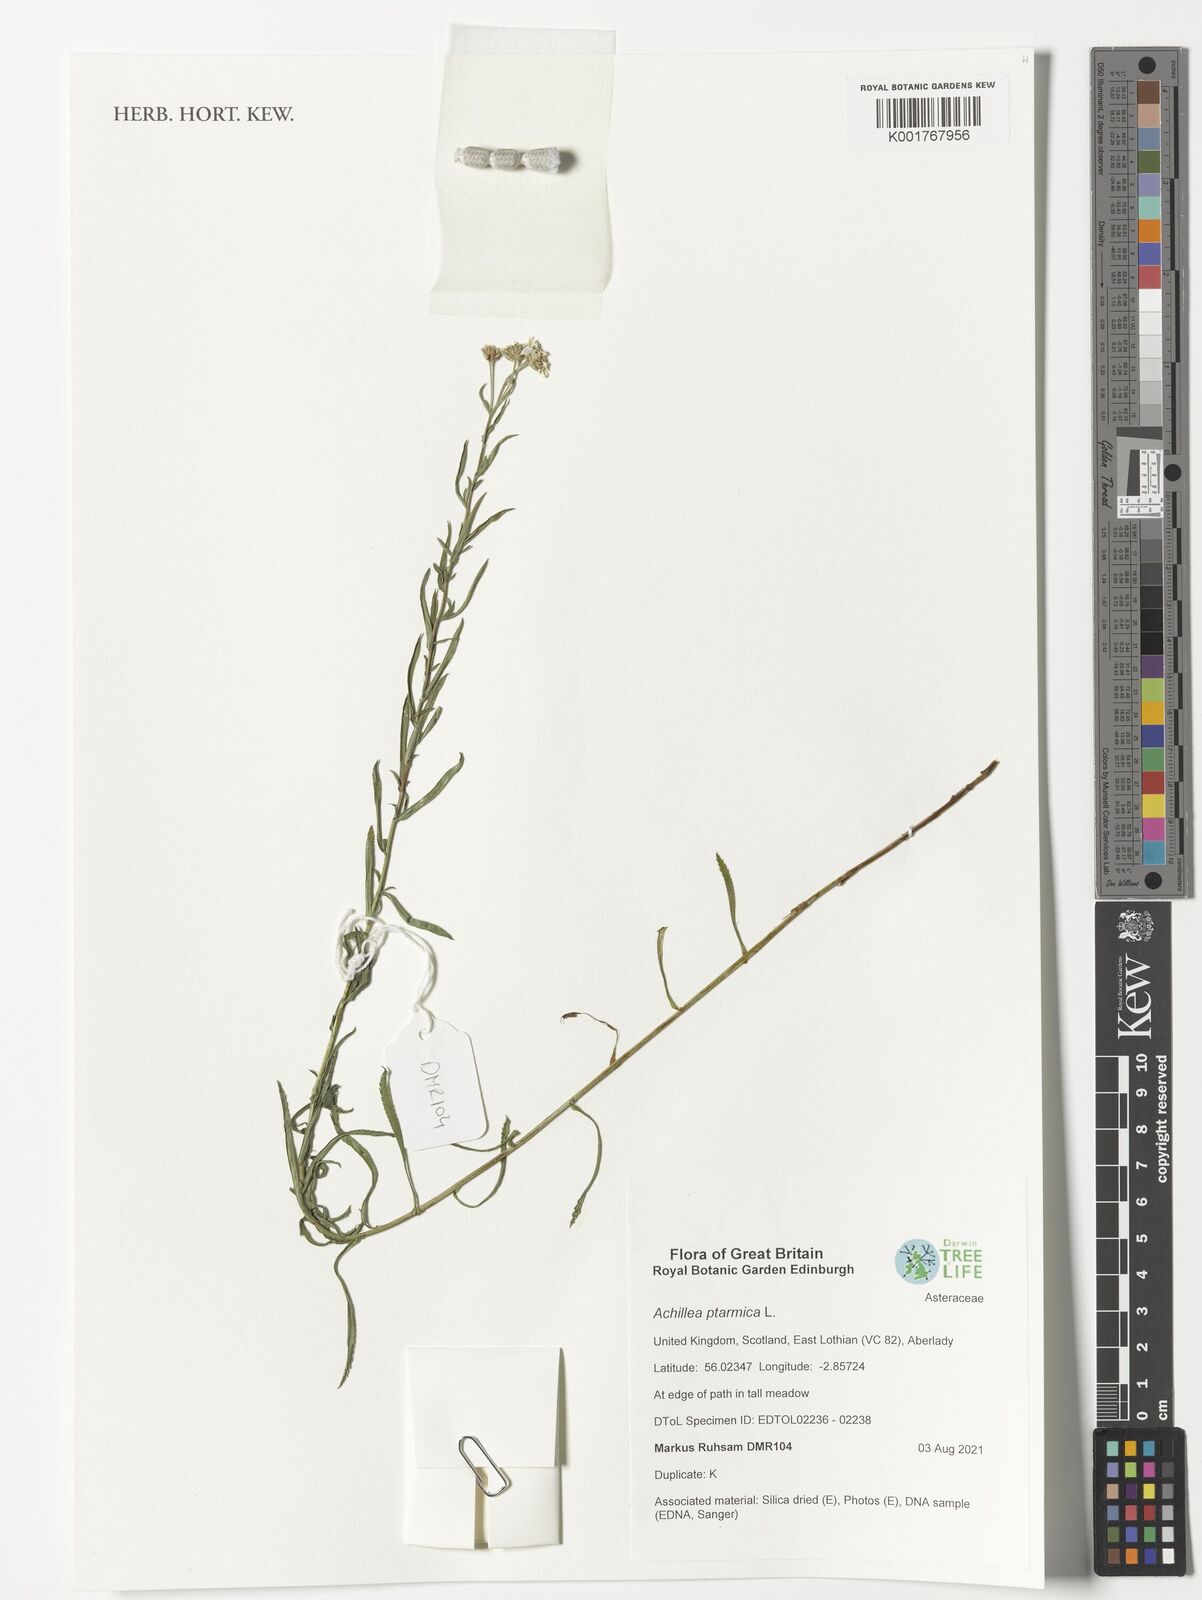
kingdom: Plantae
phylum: Tracheophyta
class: Magnoliopsida
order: Asterales
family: Asteraceae
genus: Achillea
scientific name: Achillea ptarmica
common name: Sneezeweed
